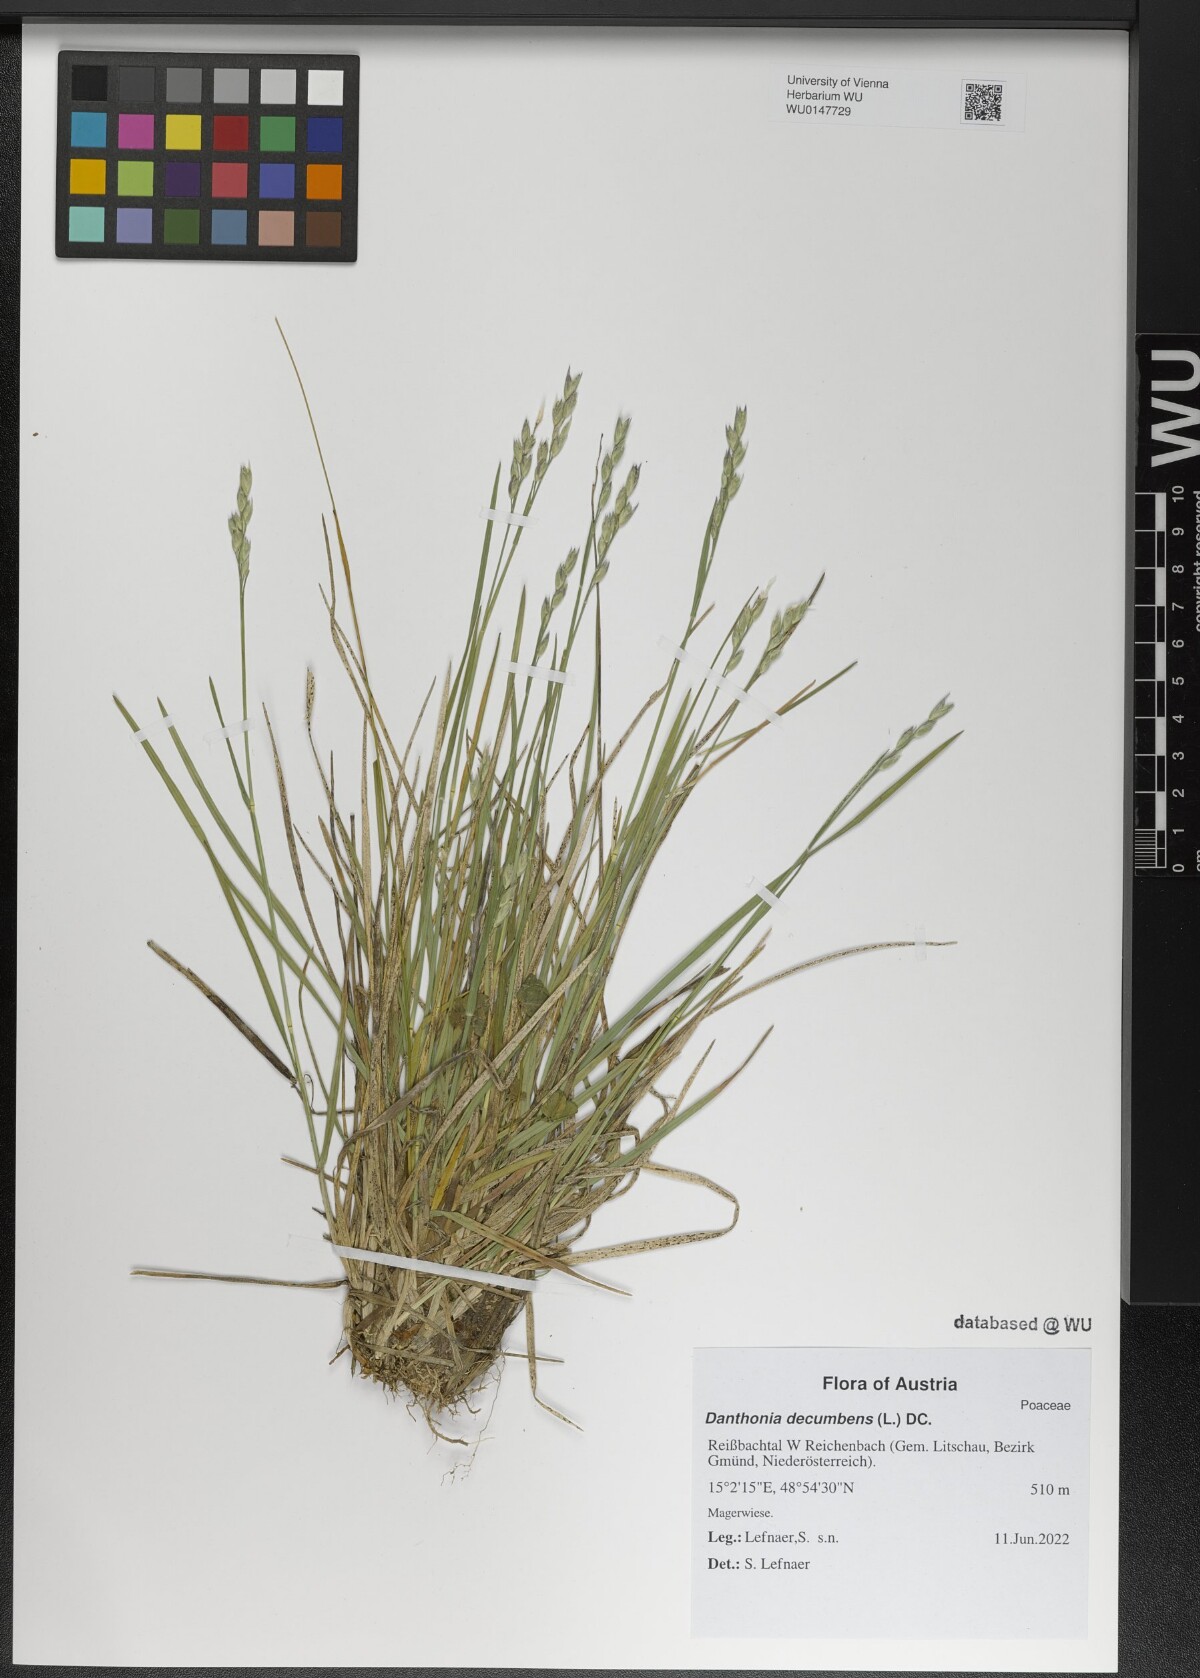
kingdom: Plantae
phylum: Tracheophyta
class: Liliopsida
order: Poales
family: Poaceae
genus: Danthonia
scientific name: Danthonia decumbens
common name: Common heathgrass
